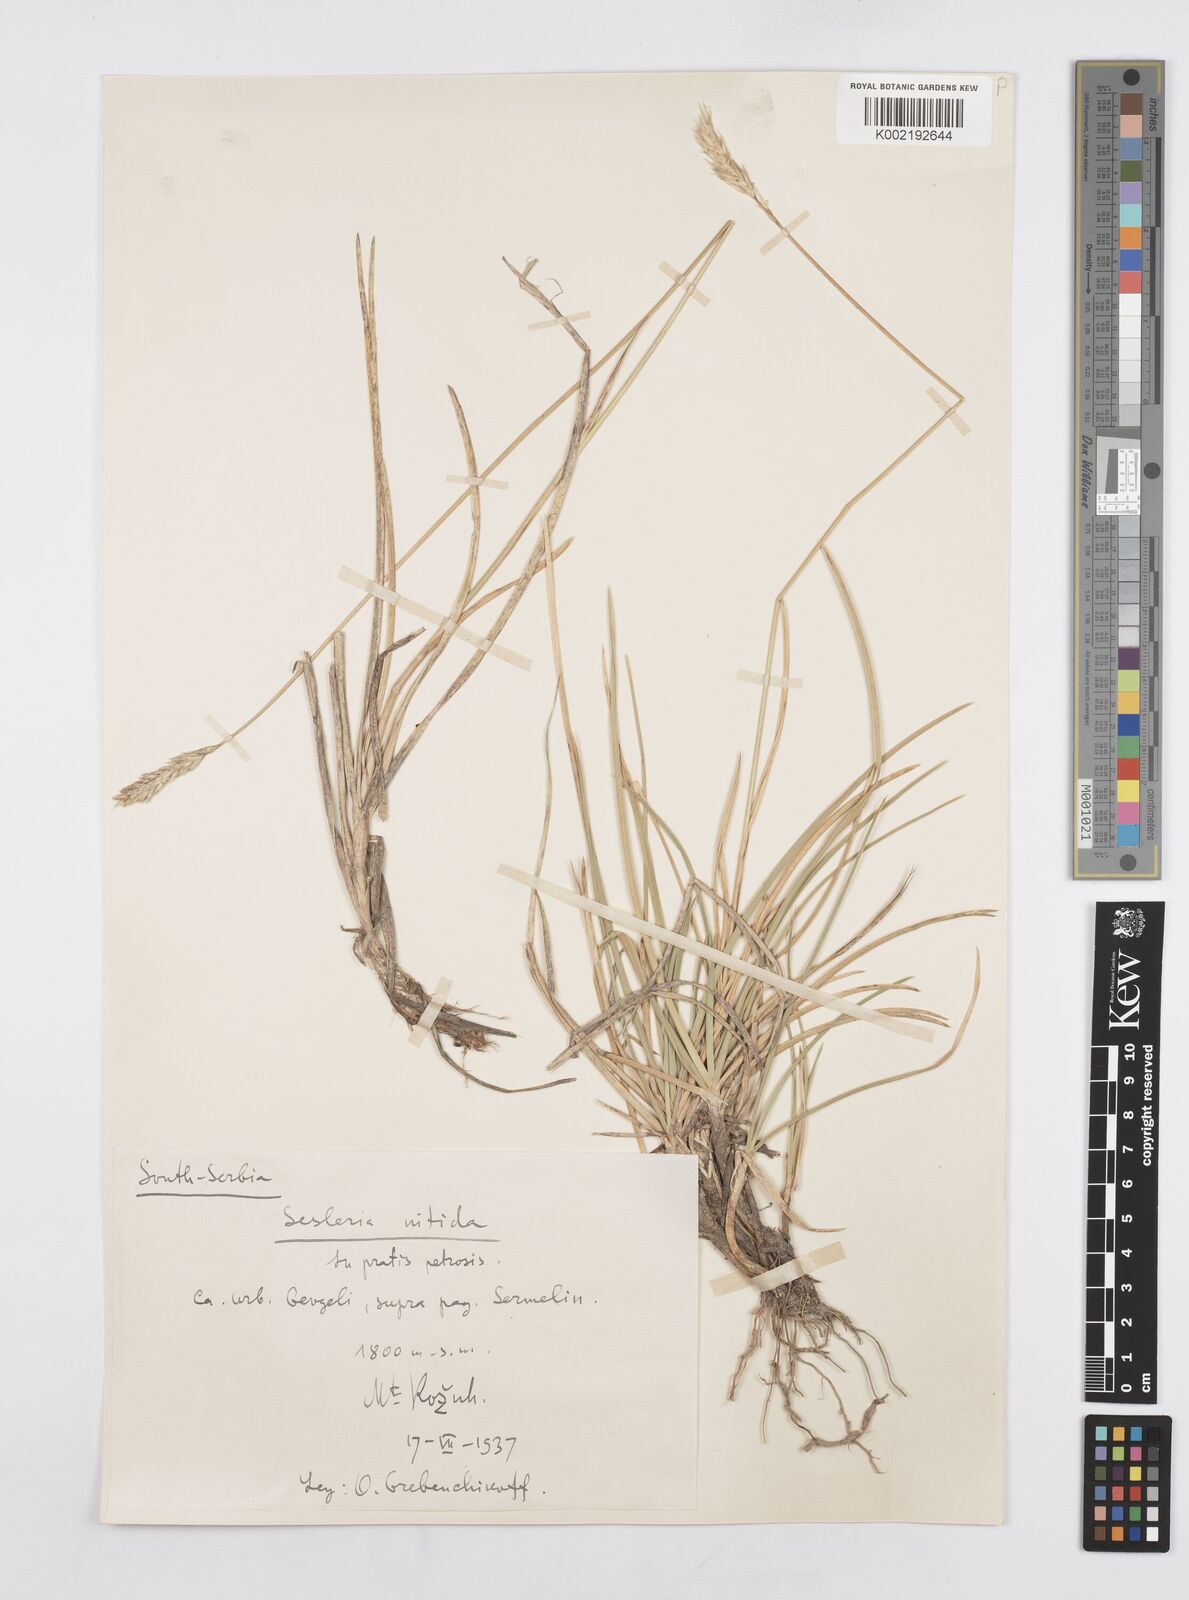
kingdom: Plantae
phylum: Tracheophyta
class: Liliopsida
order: Poales
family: Poaceae
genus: Sesleria
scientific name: Sesleria robusta
